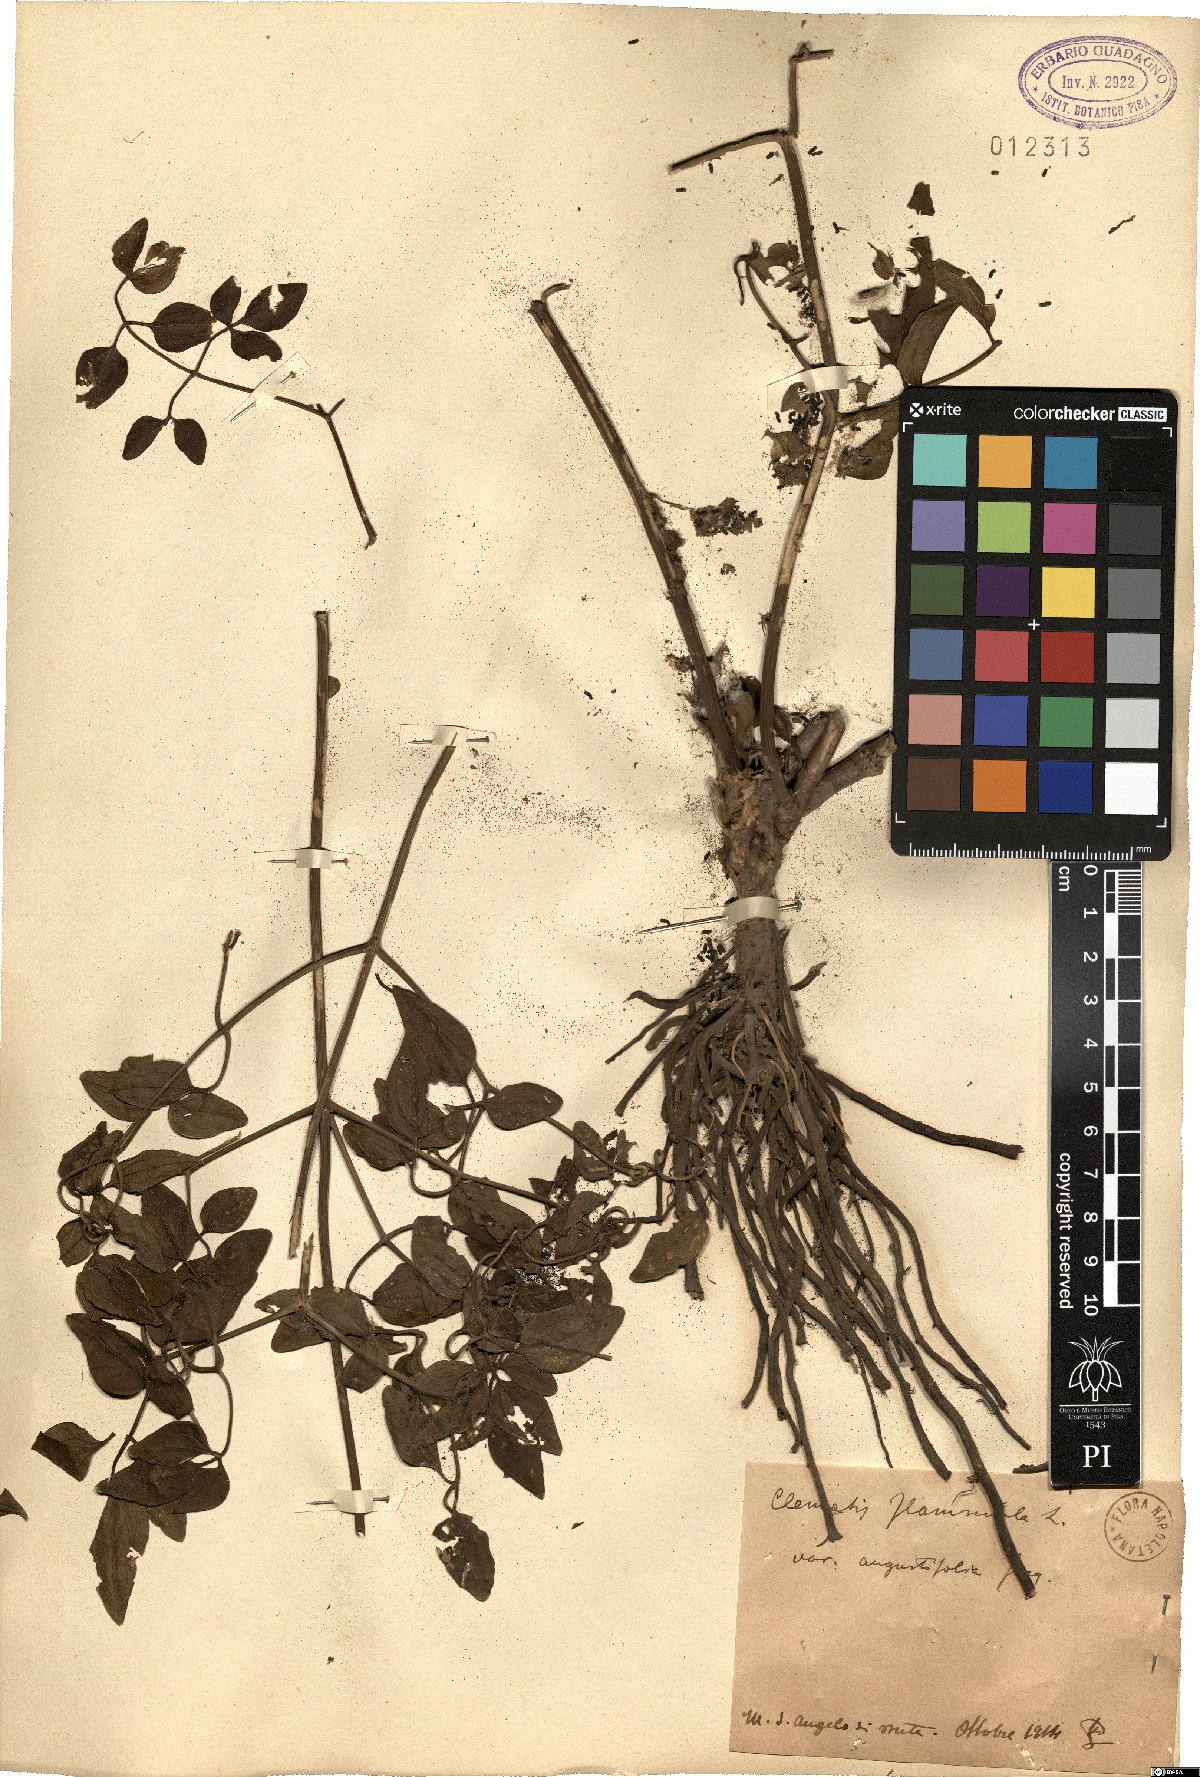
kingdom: Plantae
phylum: Tracheophyta
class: Magnoliopsida
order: Ranunculales
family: Ranunculaceae
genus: Clematis
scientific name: Clematis flammula
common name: Virgin's-bower
